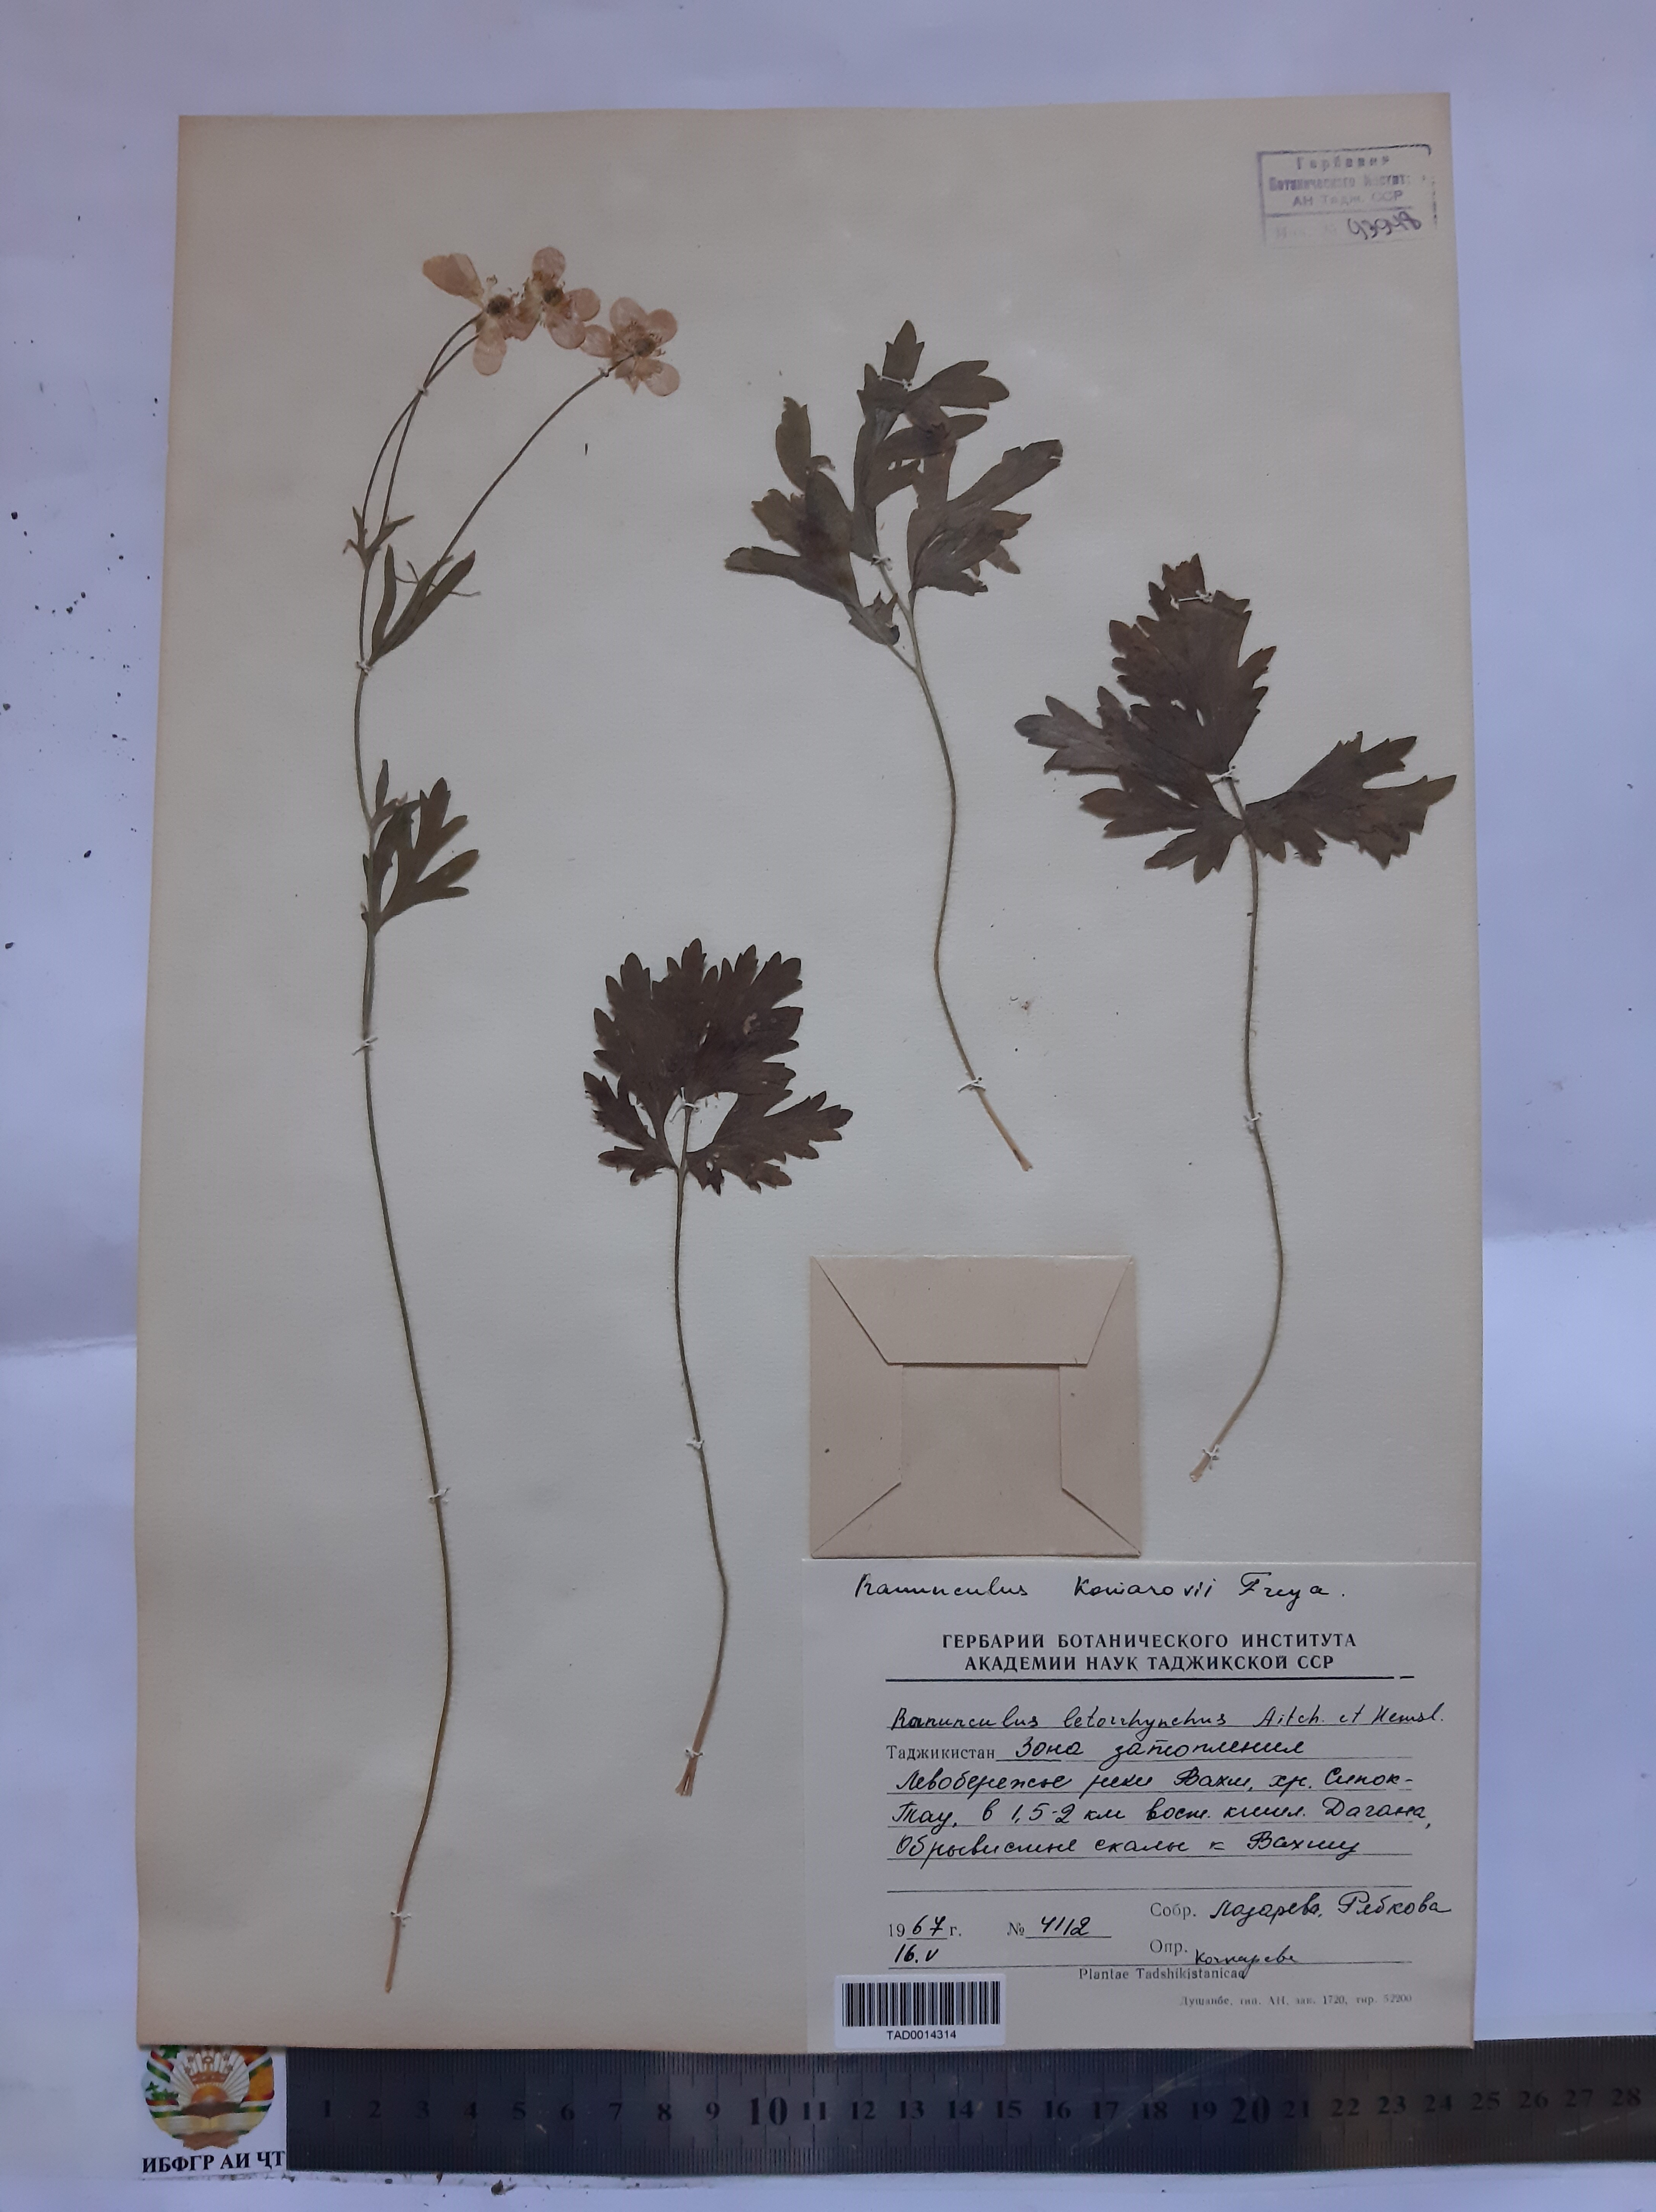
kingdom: Plantae
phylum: Tracheophyta
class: Magnoliopsida
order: Ranunculales
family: Ranunculaceae
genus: Ranunculus
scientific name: Ranunculus leptorrhynchus
